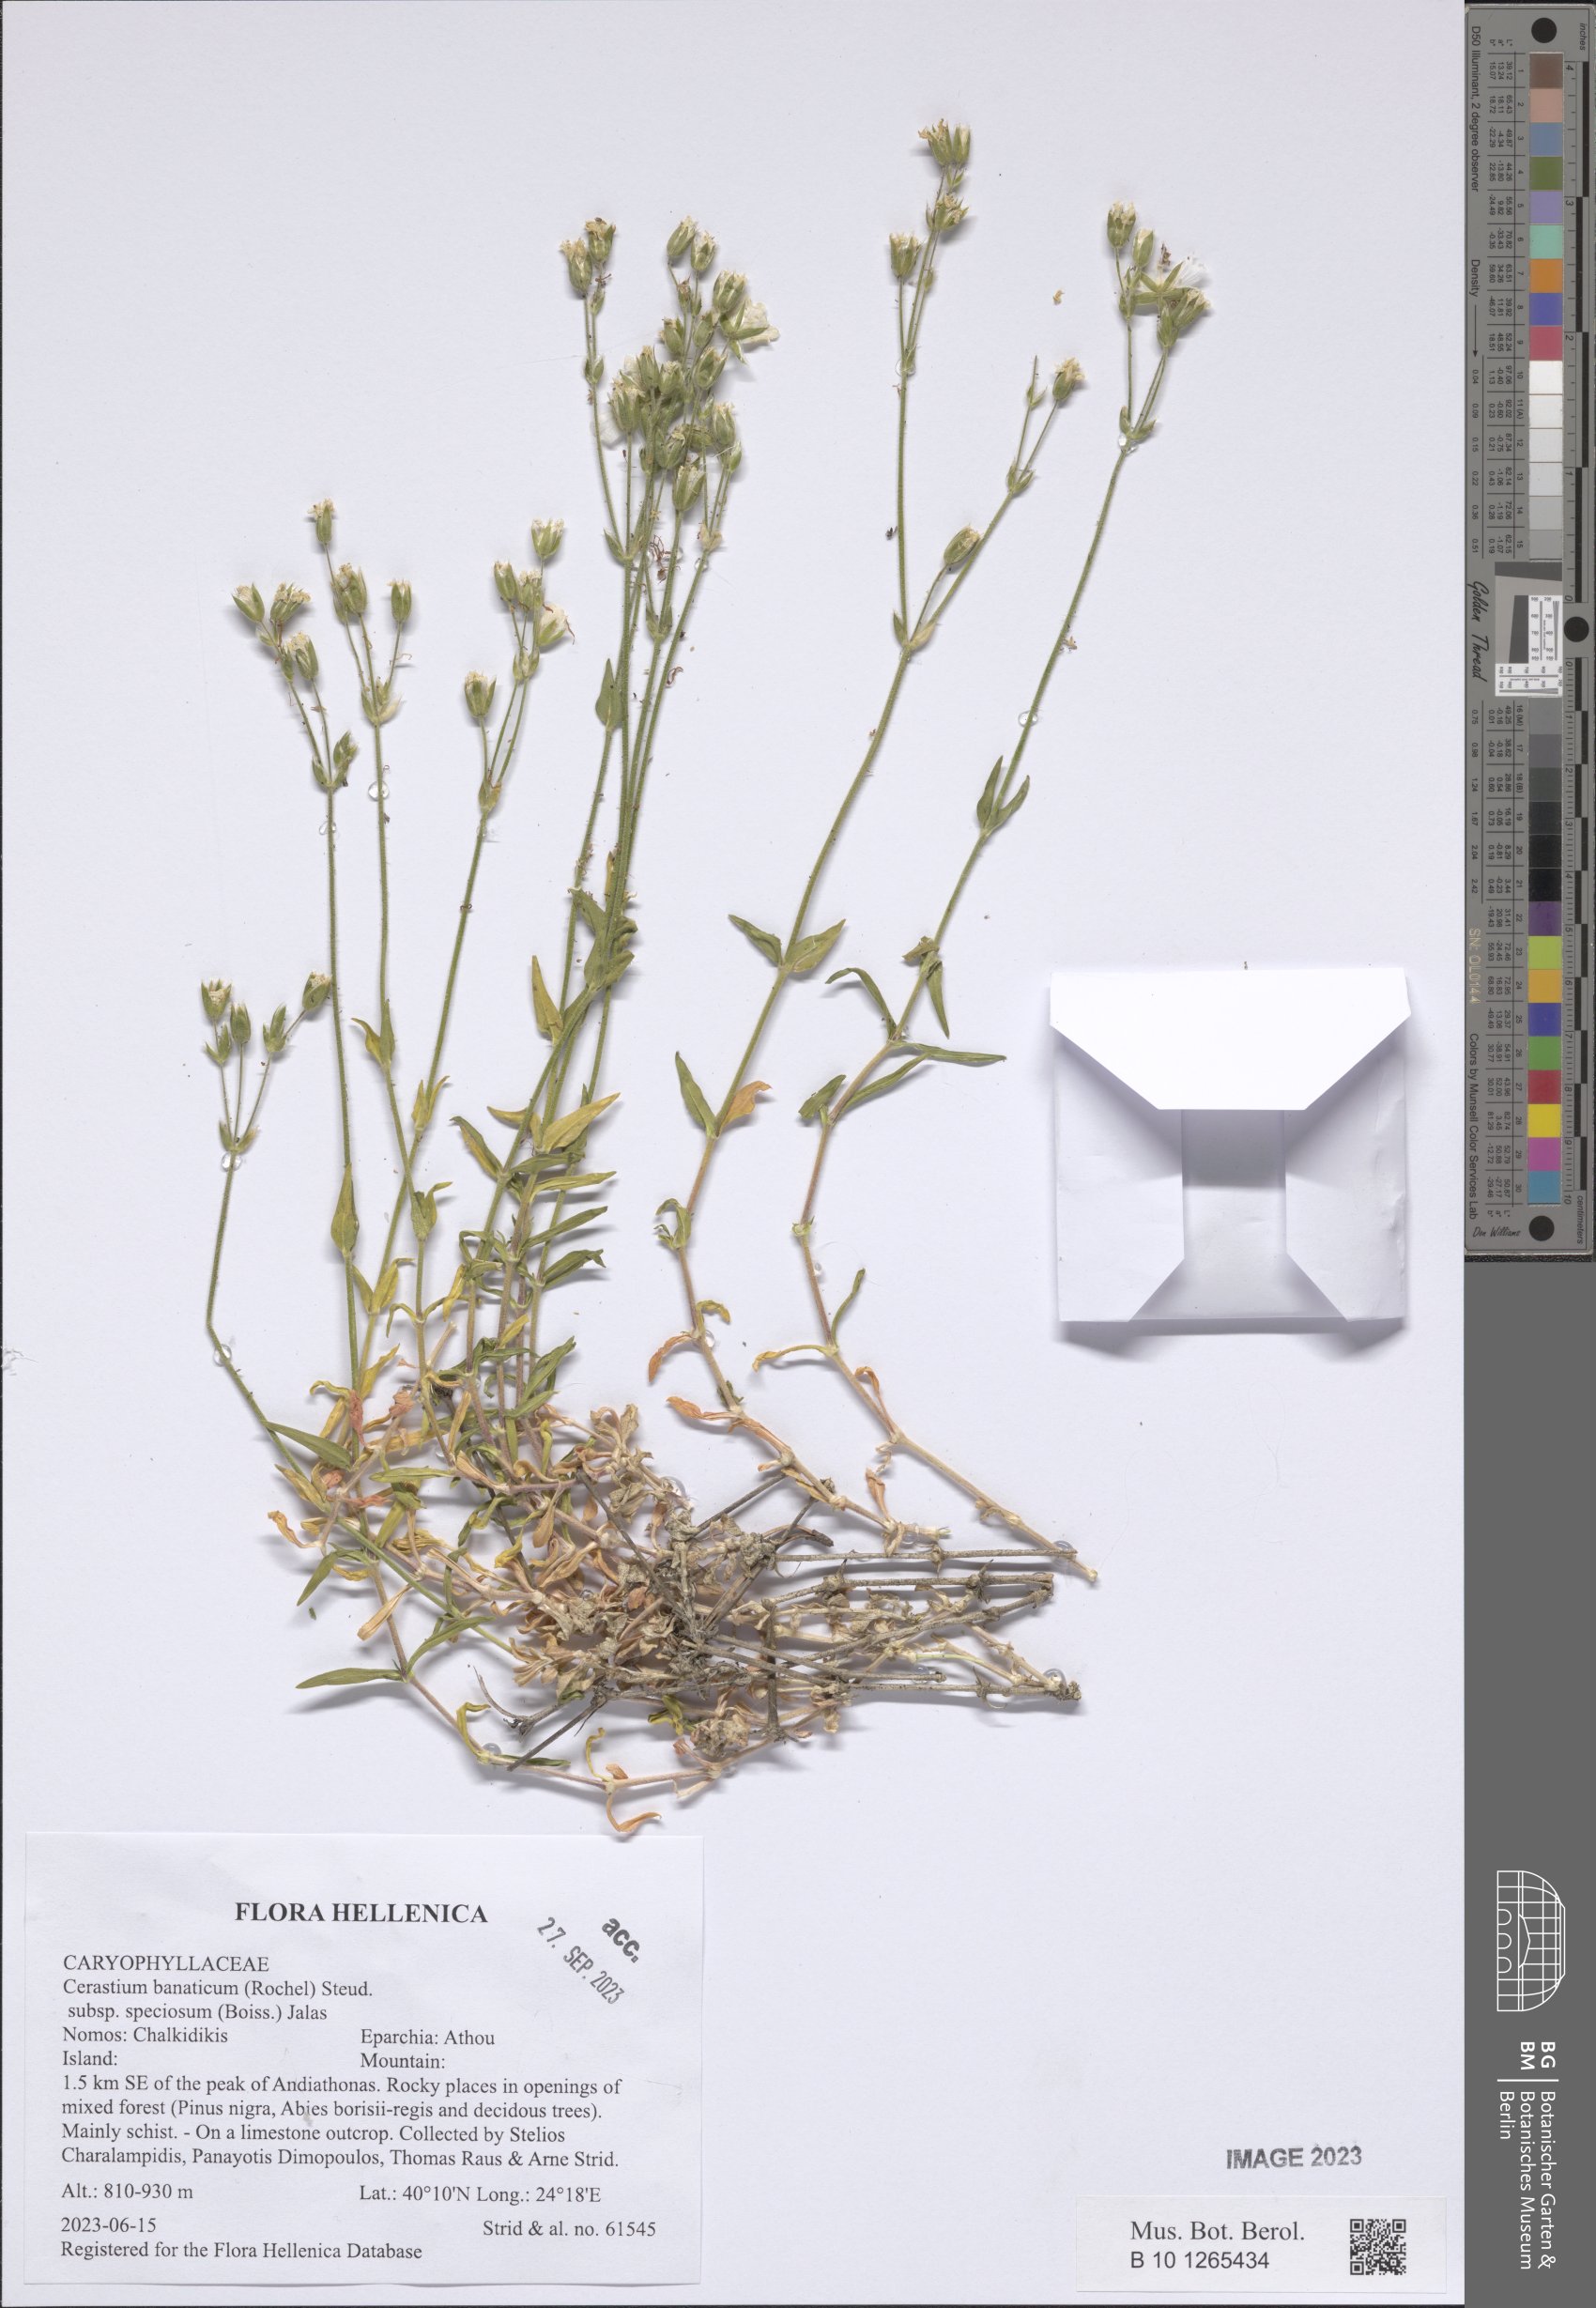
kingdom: Plantae
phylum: Tracheophyta
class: Magnoliopsida
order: Caryophyllales
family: Caryophyllaceae
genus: Cerastium
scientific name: Cerastium banaticum
